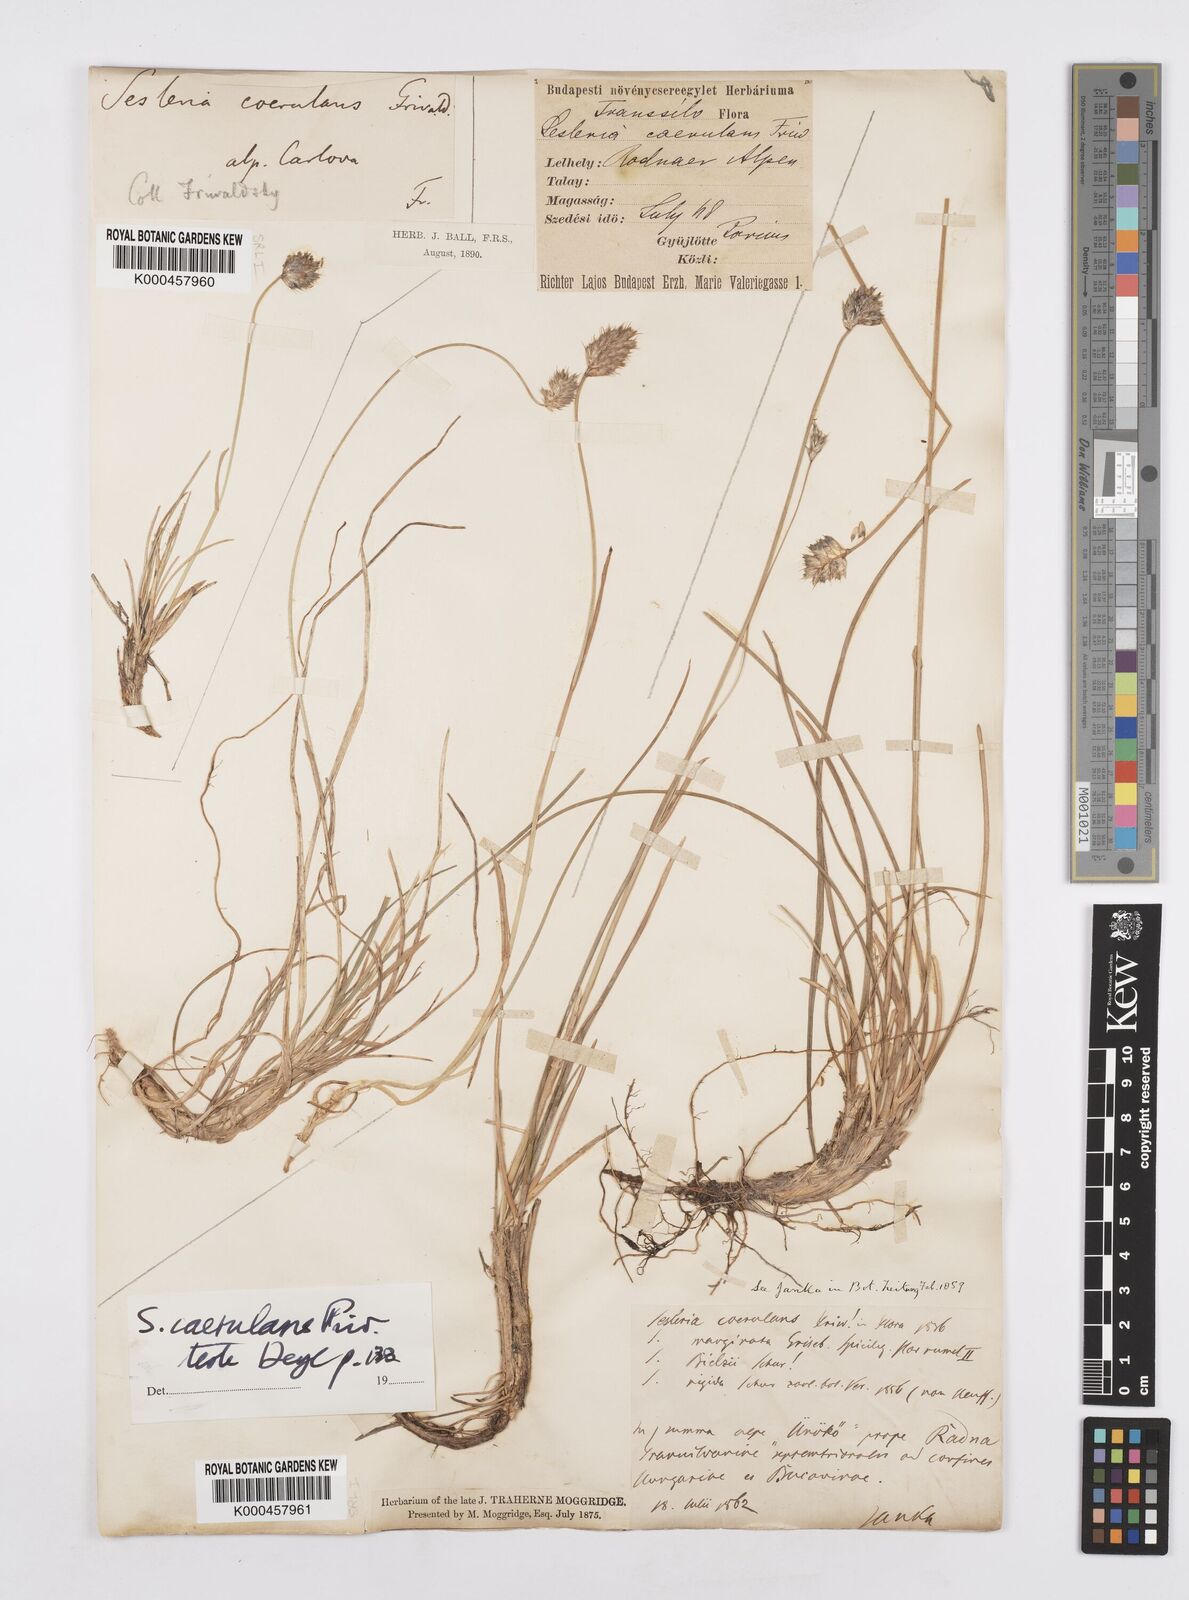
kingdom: Plantae
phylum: Tracheophyta
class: Liliopsida
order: Poales
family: Poaceae
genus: Sesleria
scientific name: Sesleria coerulans
